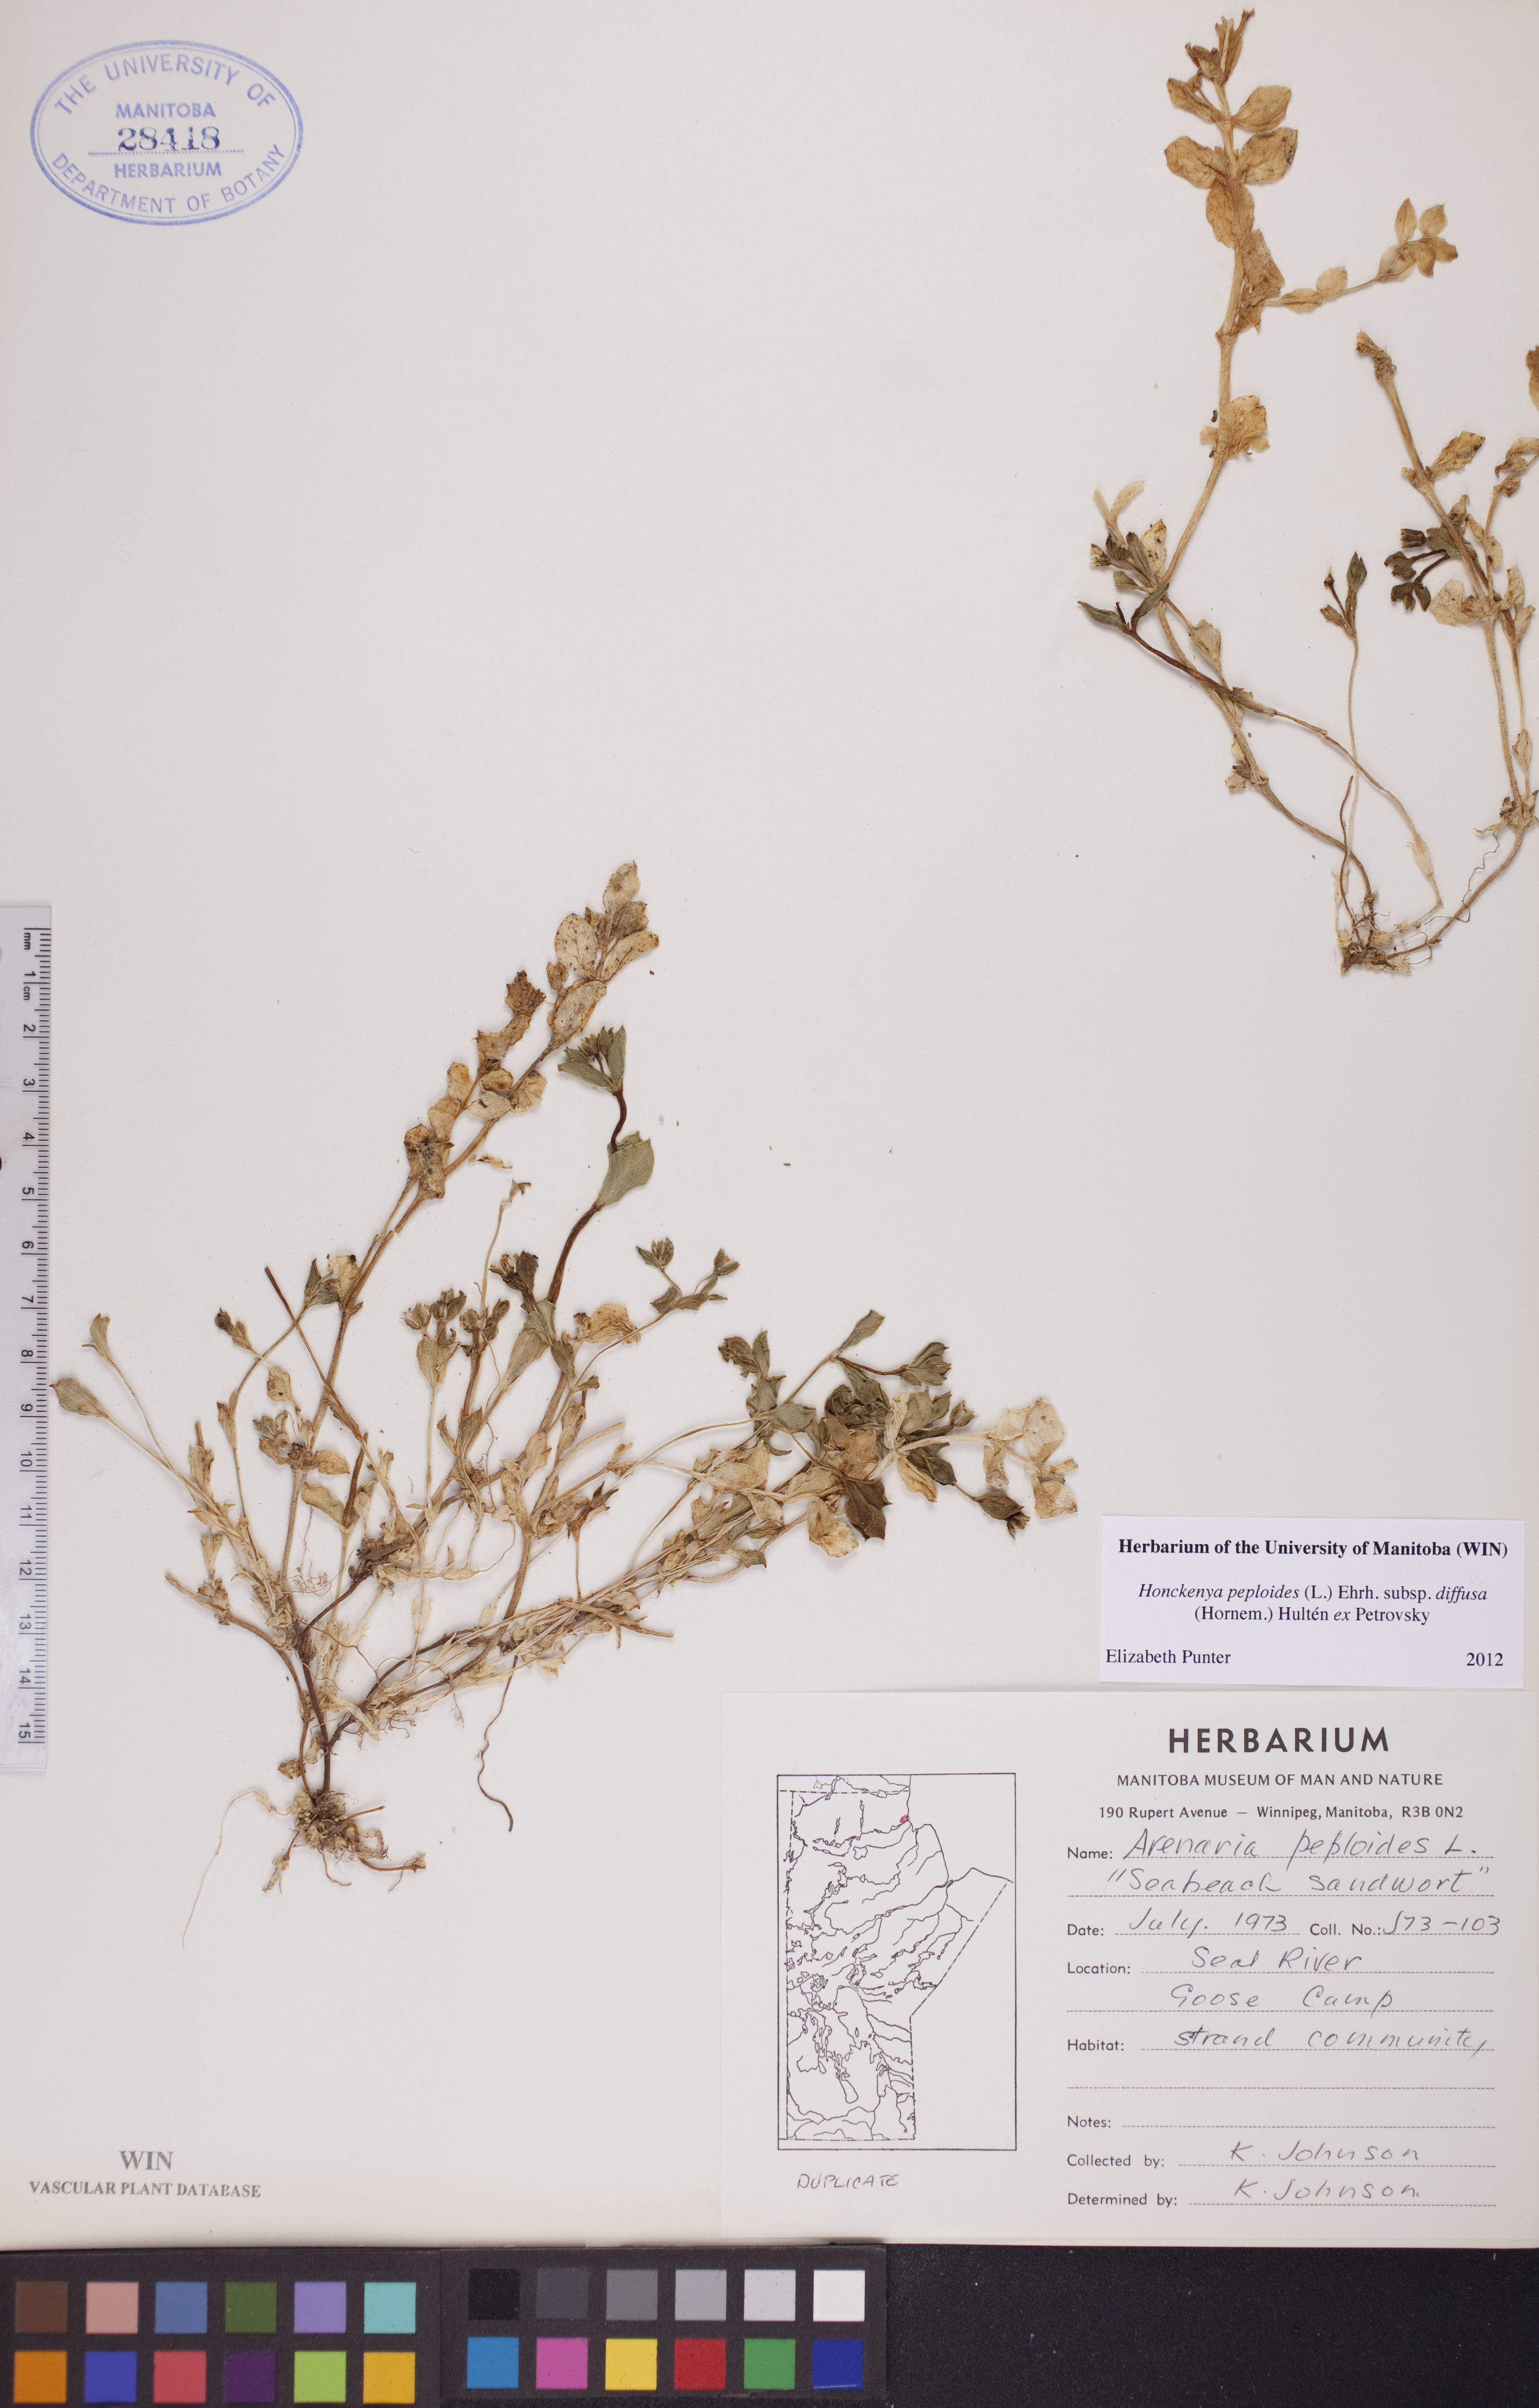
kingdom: Plantae
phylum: Tracheophyta
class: Magnoliopsida
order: Caryophyllales
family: Caryophyllaceae
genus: Honckenya
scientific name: Honckenya peploides
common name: Sea sandwort
